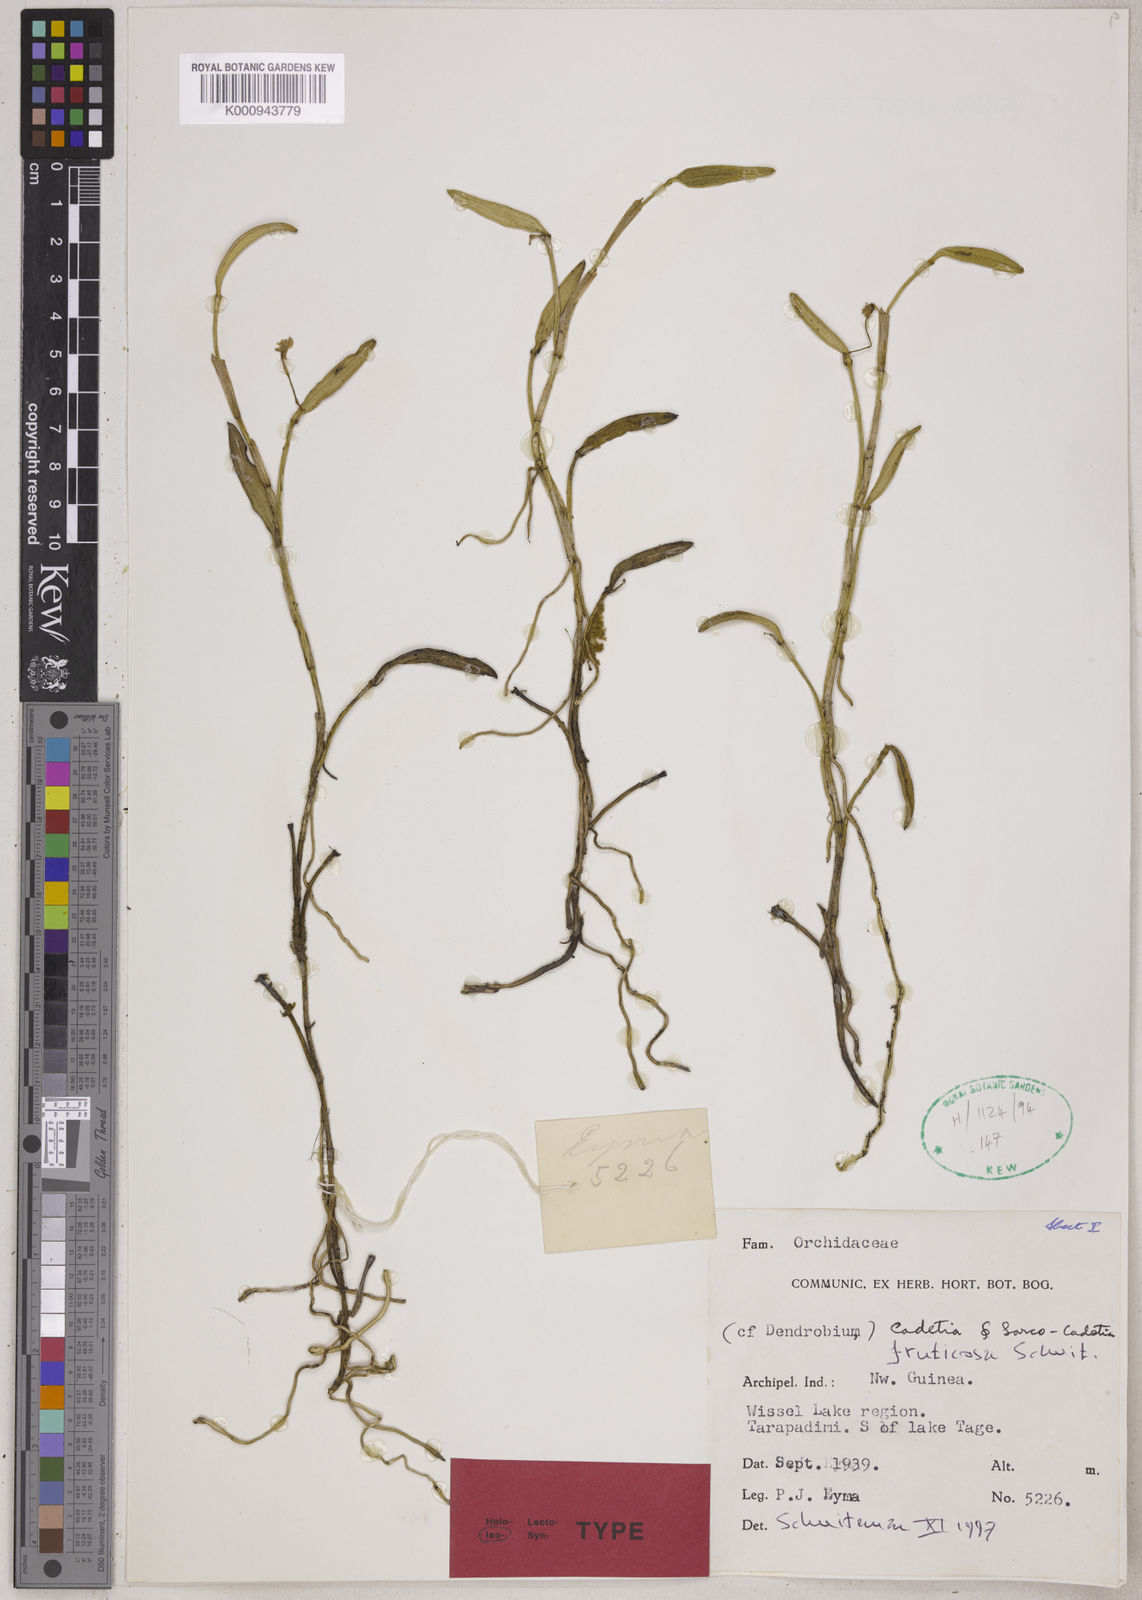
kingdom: Plantae
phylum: Tracheophyta
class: Liliopsida
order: Asparagales
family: Orchidaceae
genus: Dendrobium
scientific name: Dendrobium
